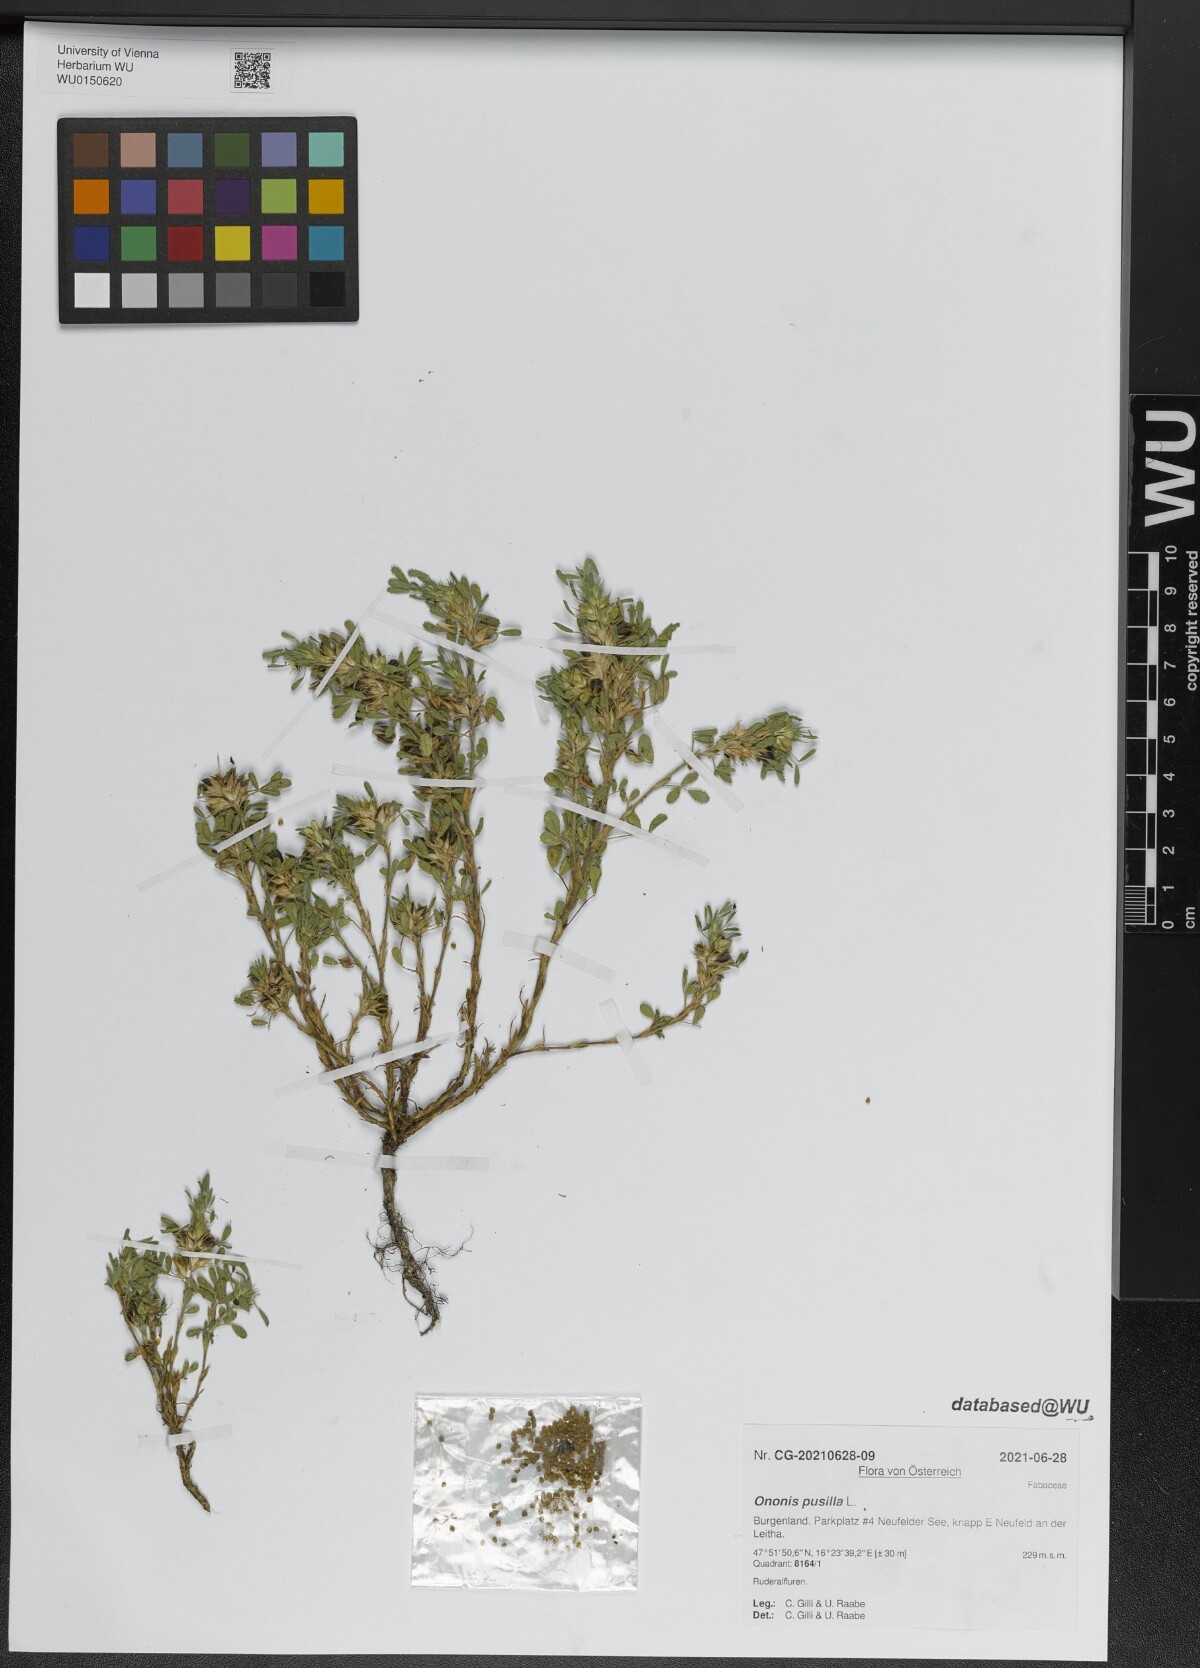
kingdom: Plantae
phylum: Tracheophyta
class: Magnoliopsida
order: Fabales
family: Fabaceae
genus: Ononis
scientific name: Ononis pusilla
